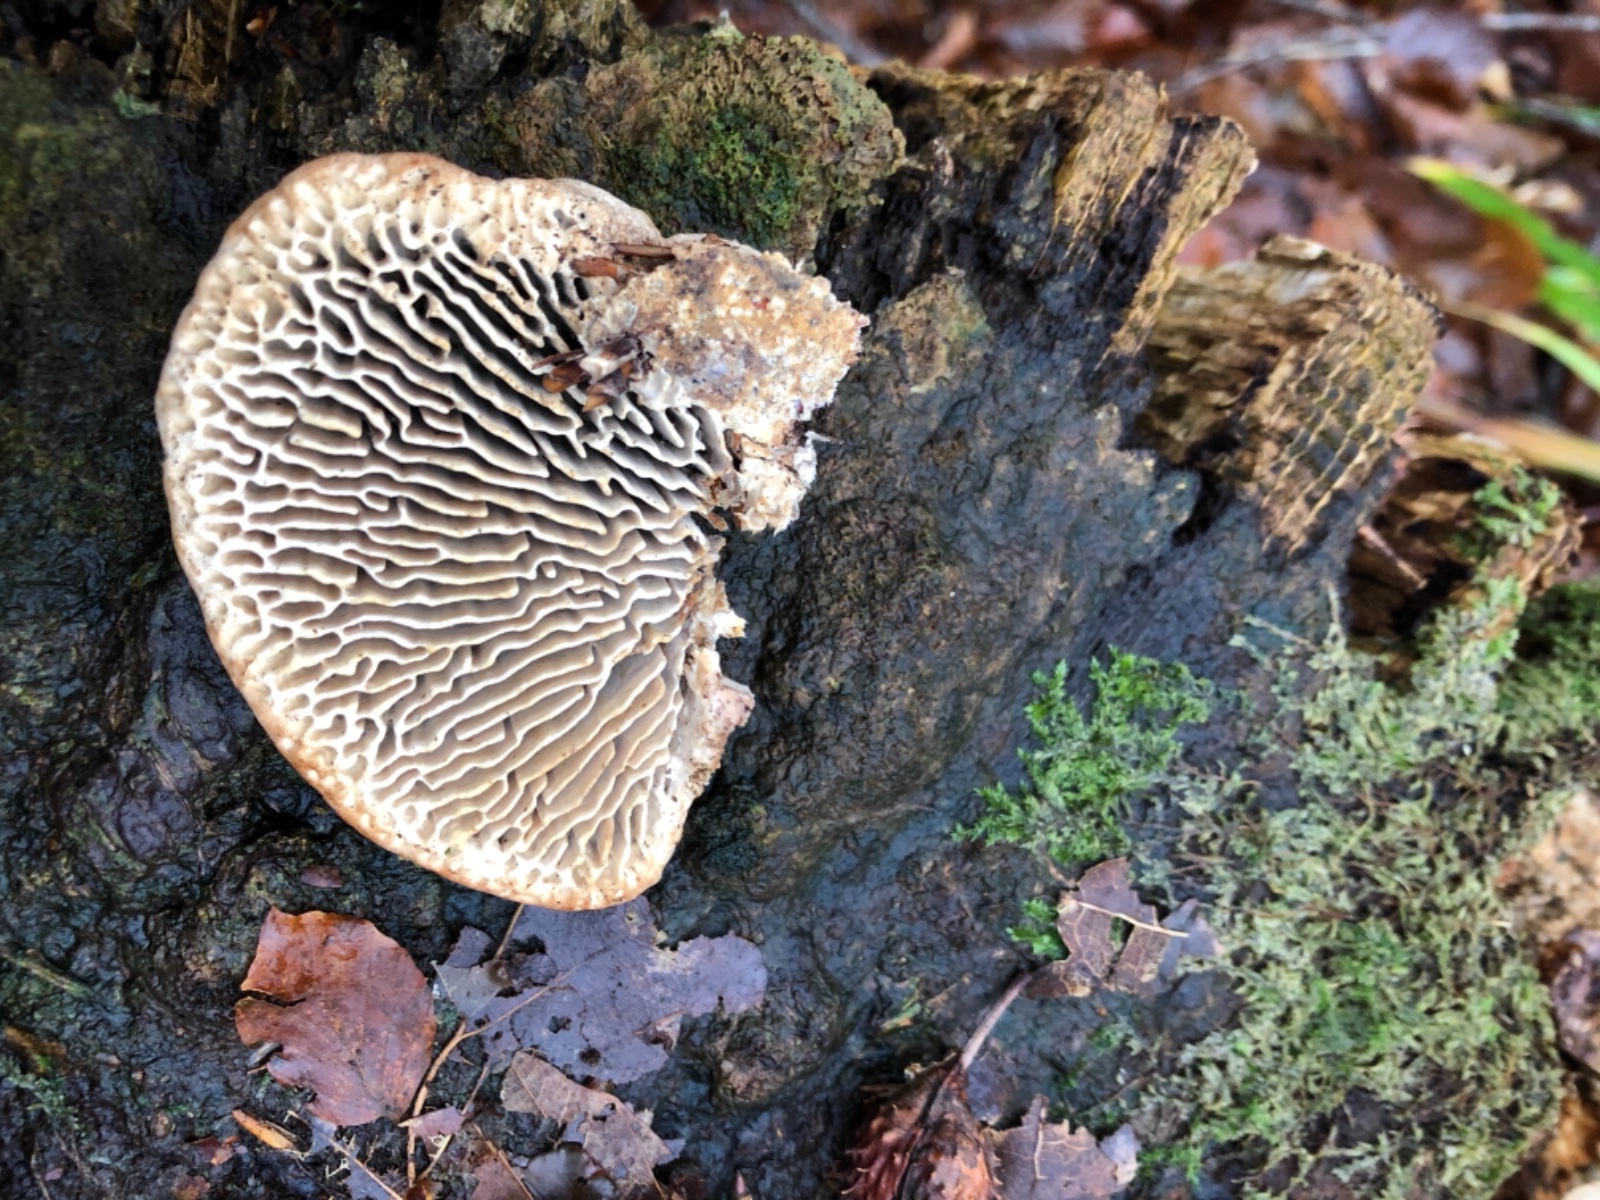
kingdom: Fungi
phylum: Basidiomycota
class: Agaricomycetes
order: Polyporales
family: Fomitopsidaceae
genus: Daedalea
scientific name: Daedalea quercina
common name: ege-labyrintsvamp
